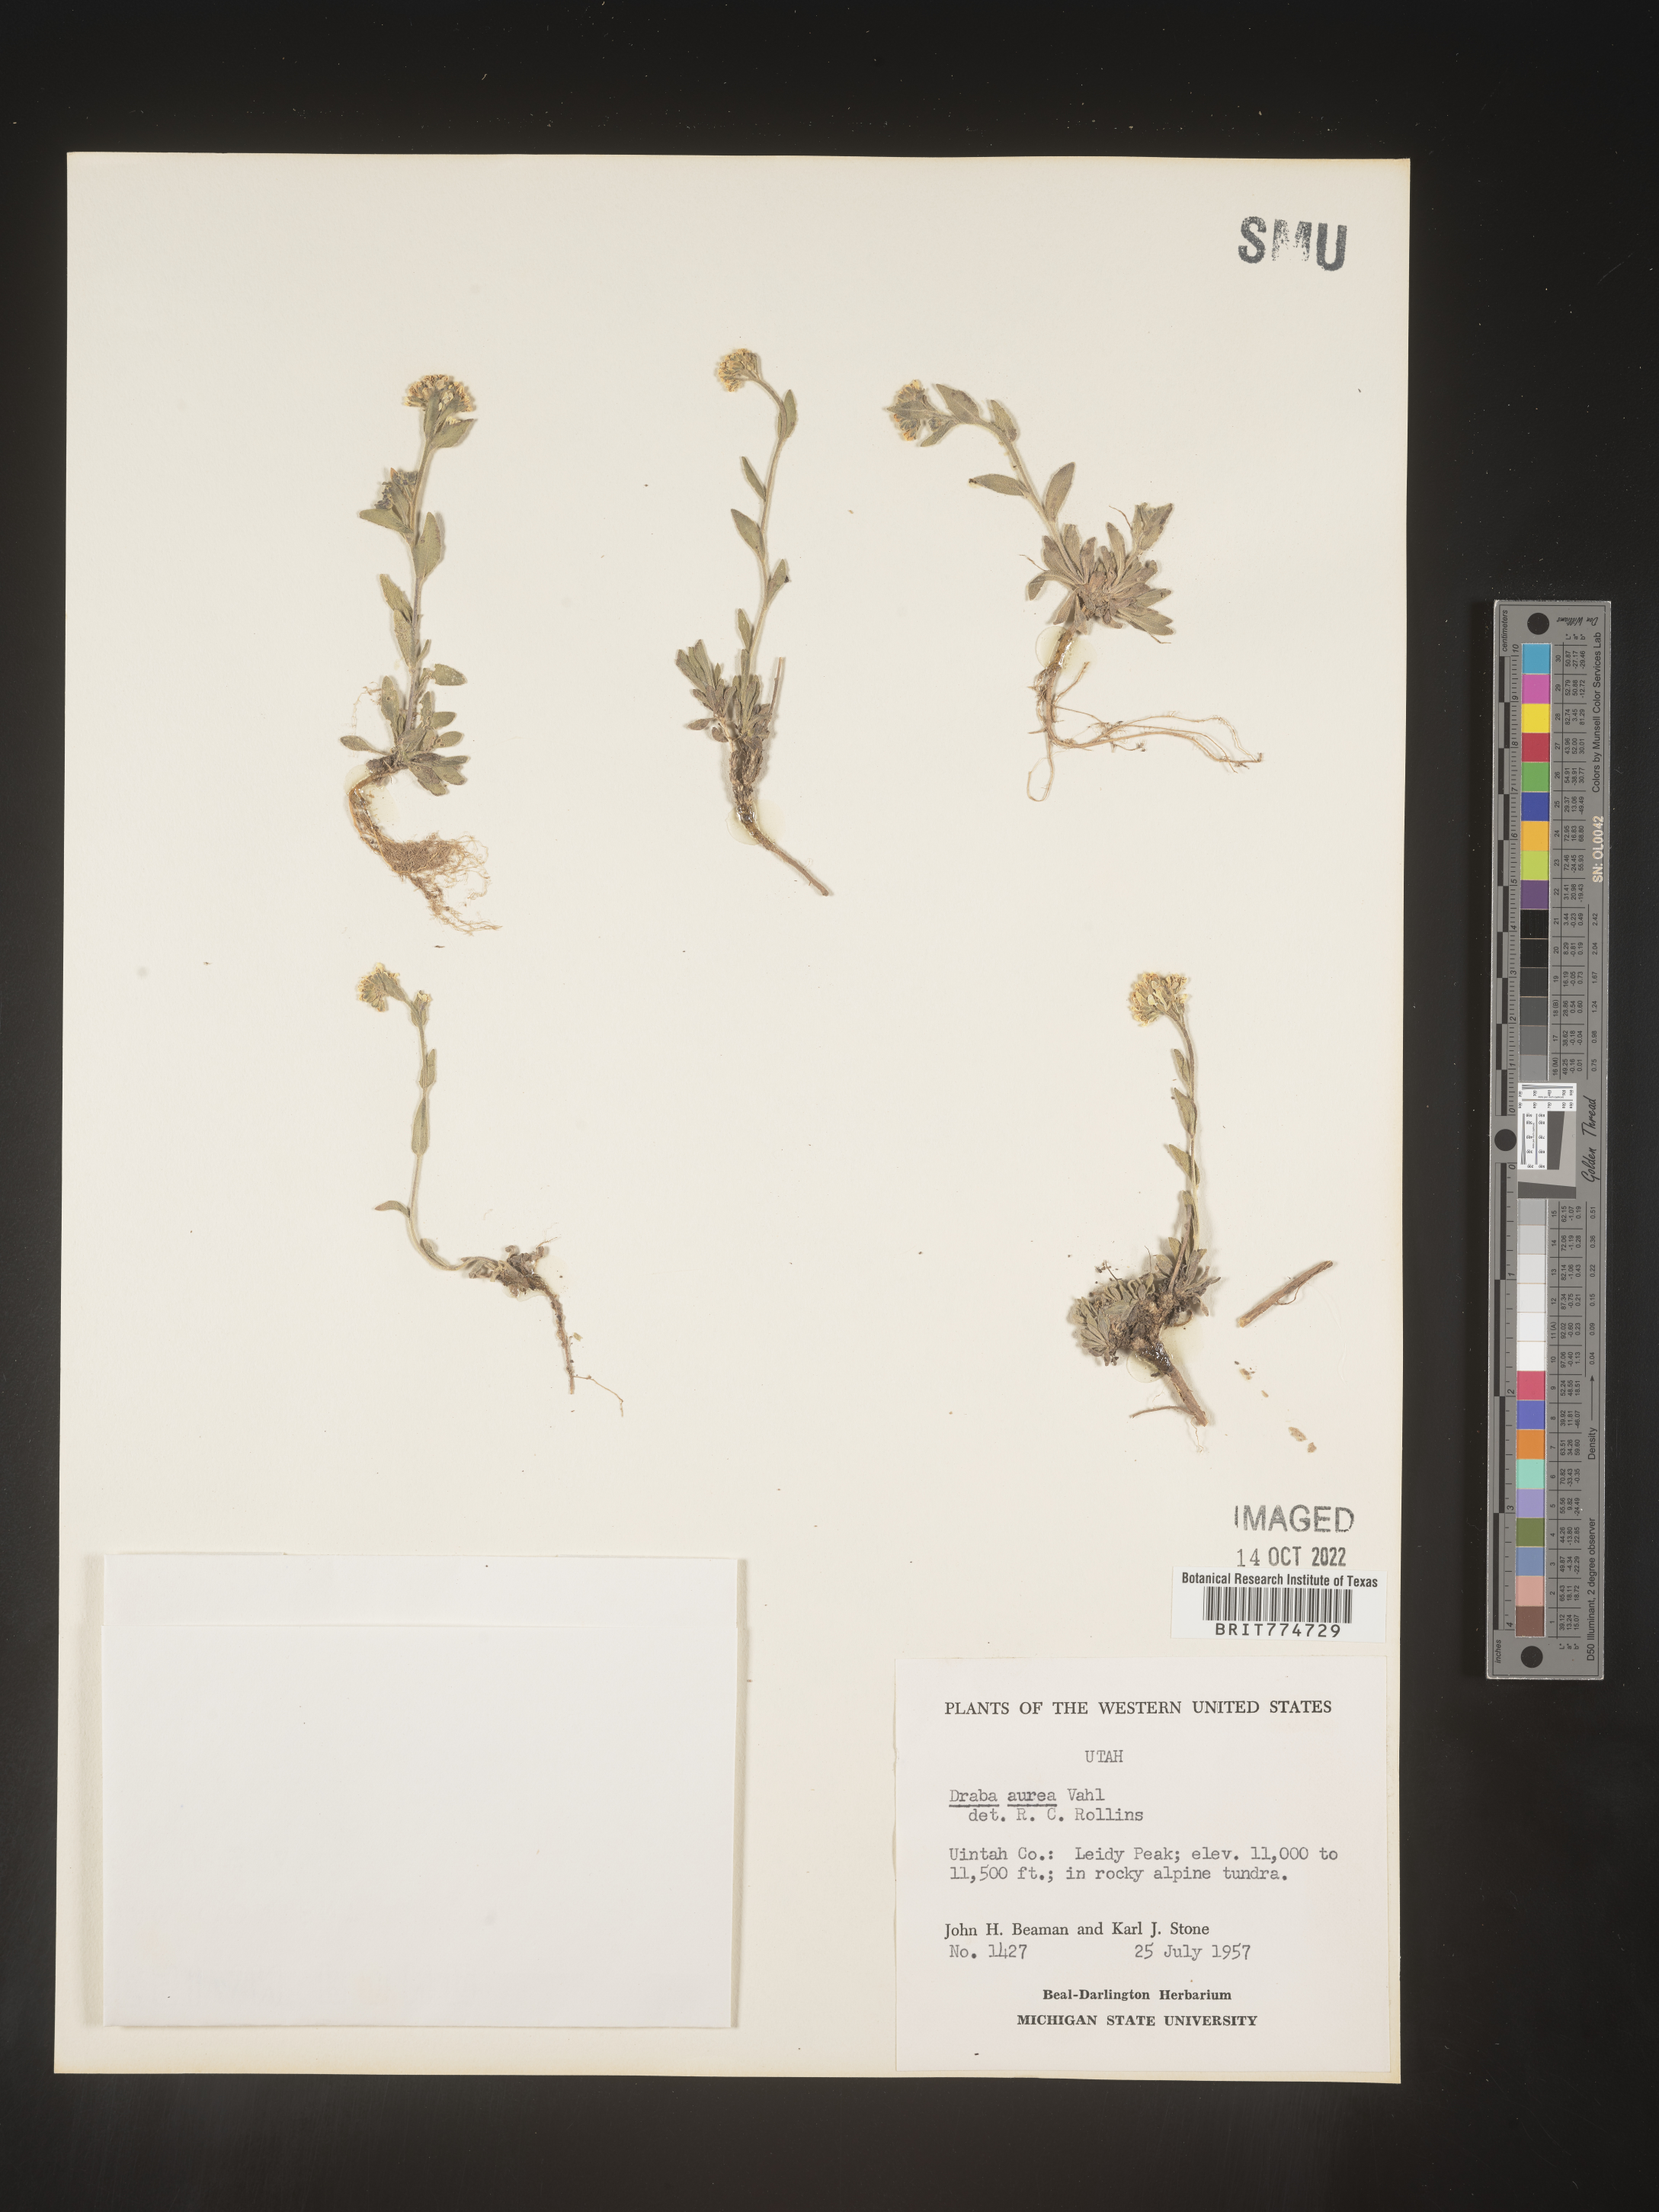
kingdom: Plantae
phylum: Tracheophyta
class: Magnoliopsida
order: Brassicales
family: Brassicaceae
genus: Draba
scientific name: Draba
